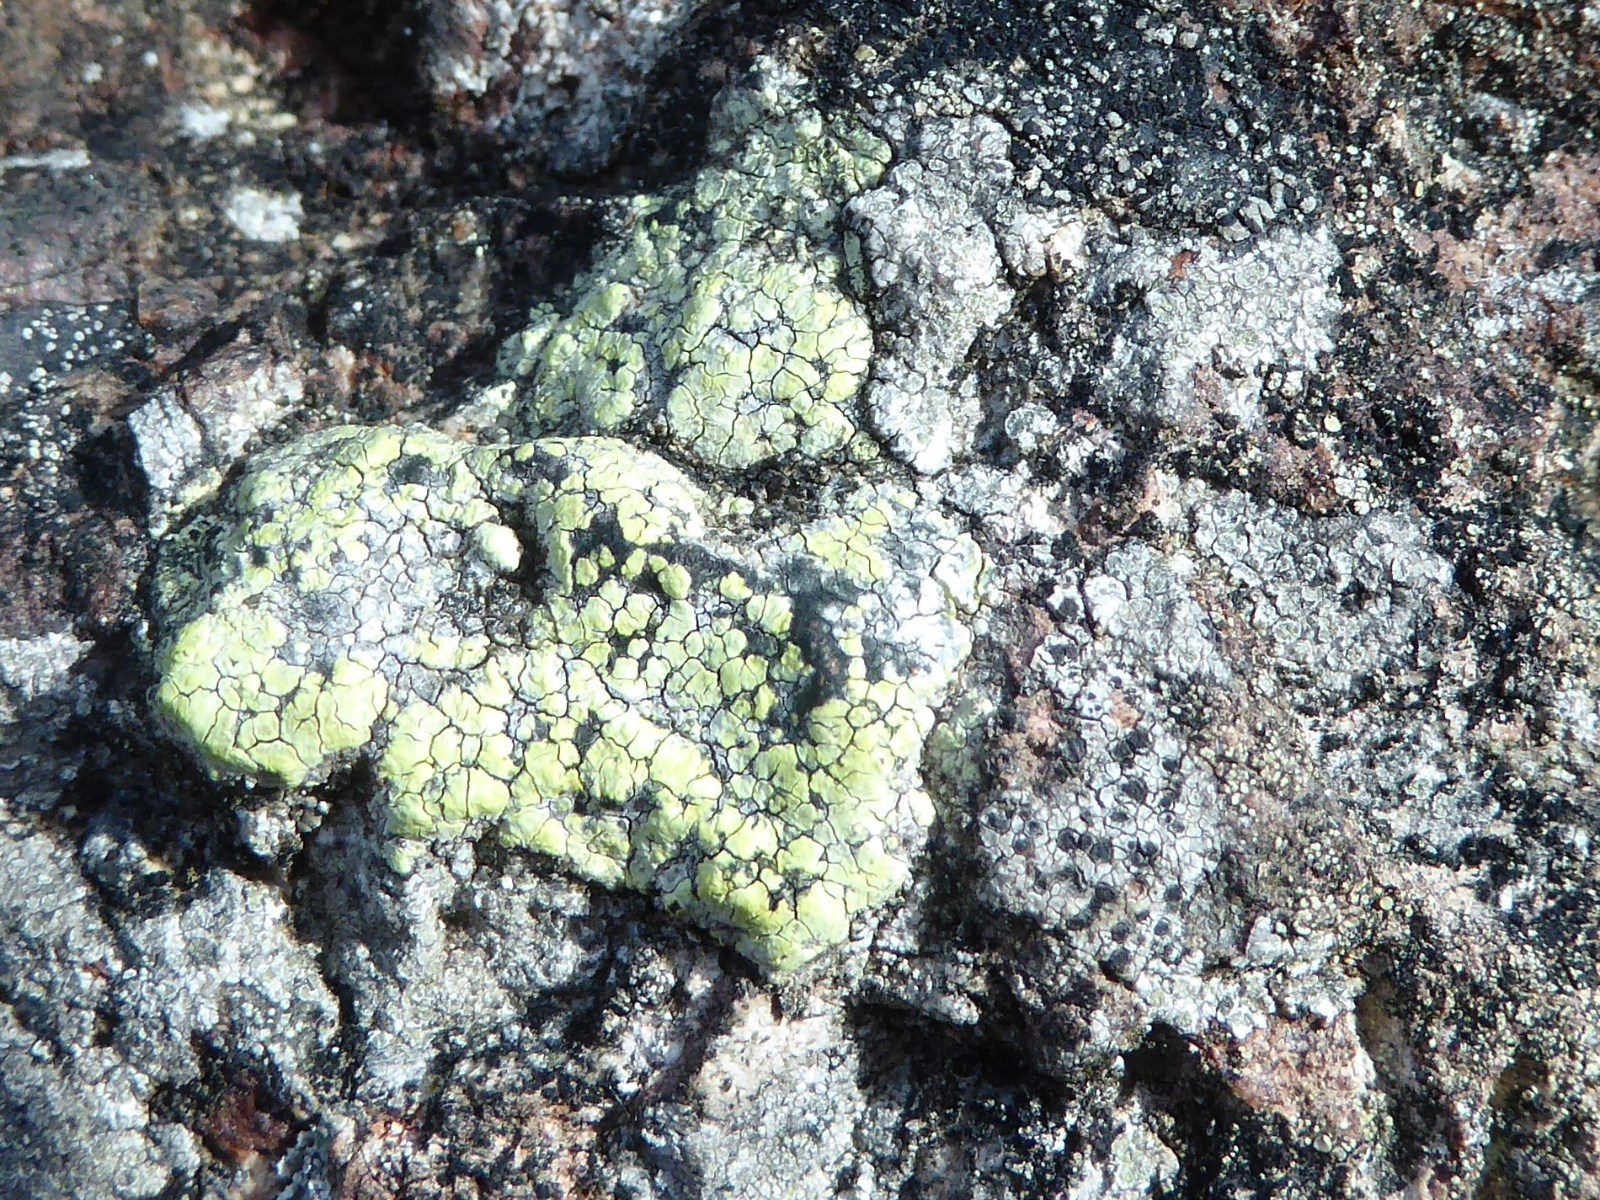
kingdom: Fungi
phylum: Ascomycota
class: Lecanoromycetes
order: Rhizocarpales
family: Rhizocarpaceae
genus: Rhizocarpon
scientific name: Rhizocarpon geographicum
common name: gulgrøn landkortlav
